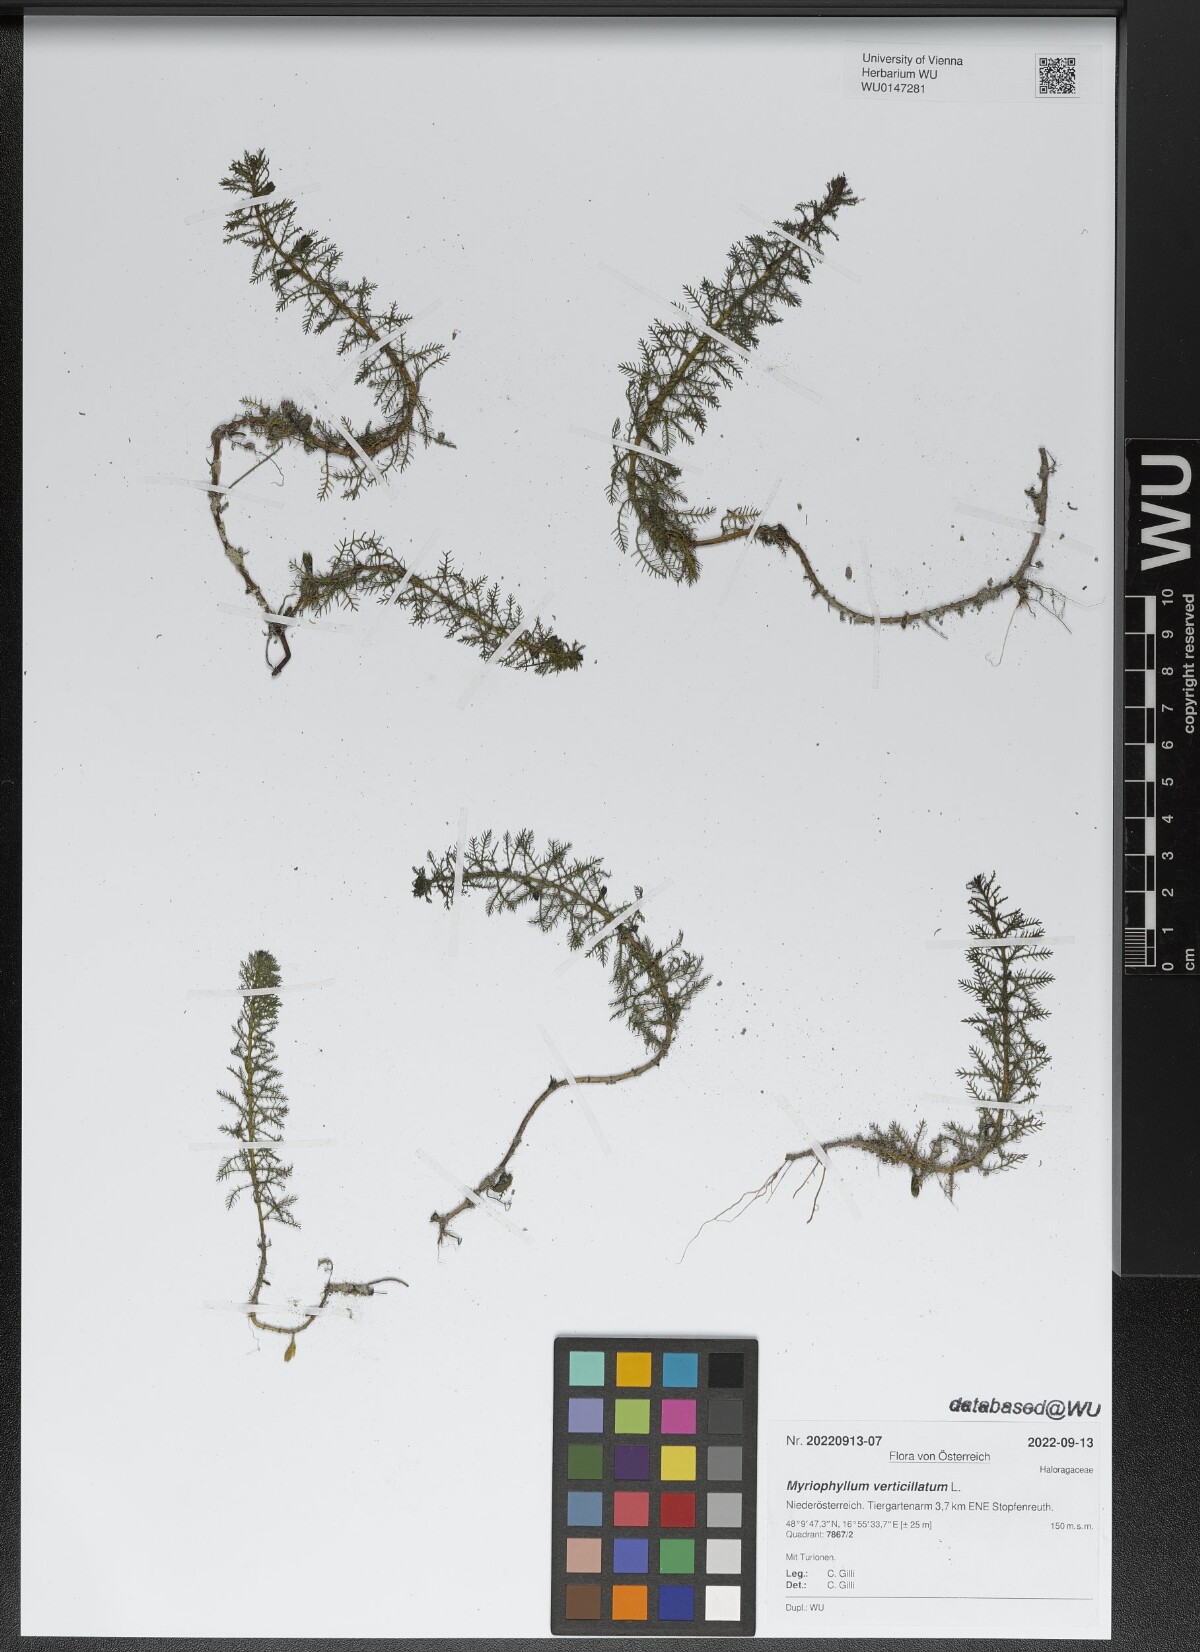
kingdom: Plantae
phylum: Tracheophyta
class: Magnoliopsida
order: Saxifragales
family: Haloragaceae
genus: Myriophyllum
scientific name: Myriophyllum verticillatum
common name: Whorled water-milfoil
